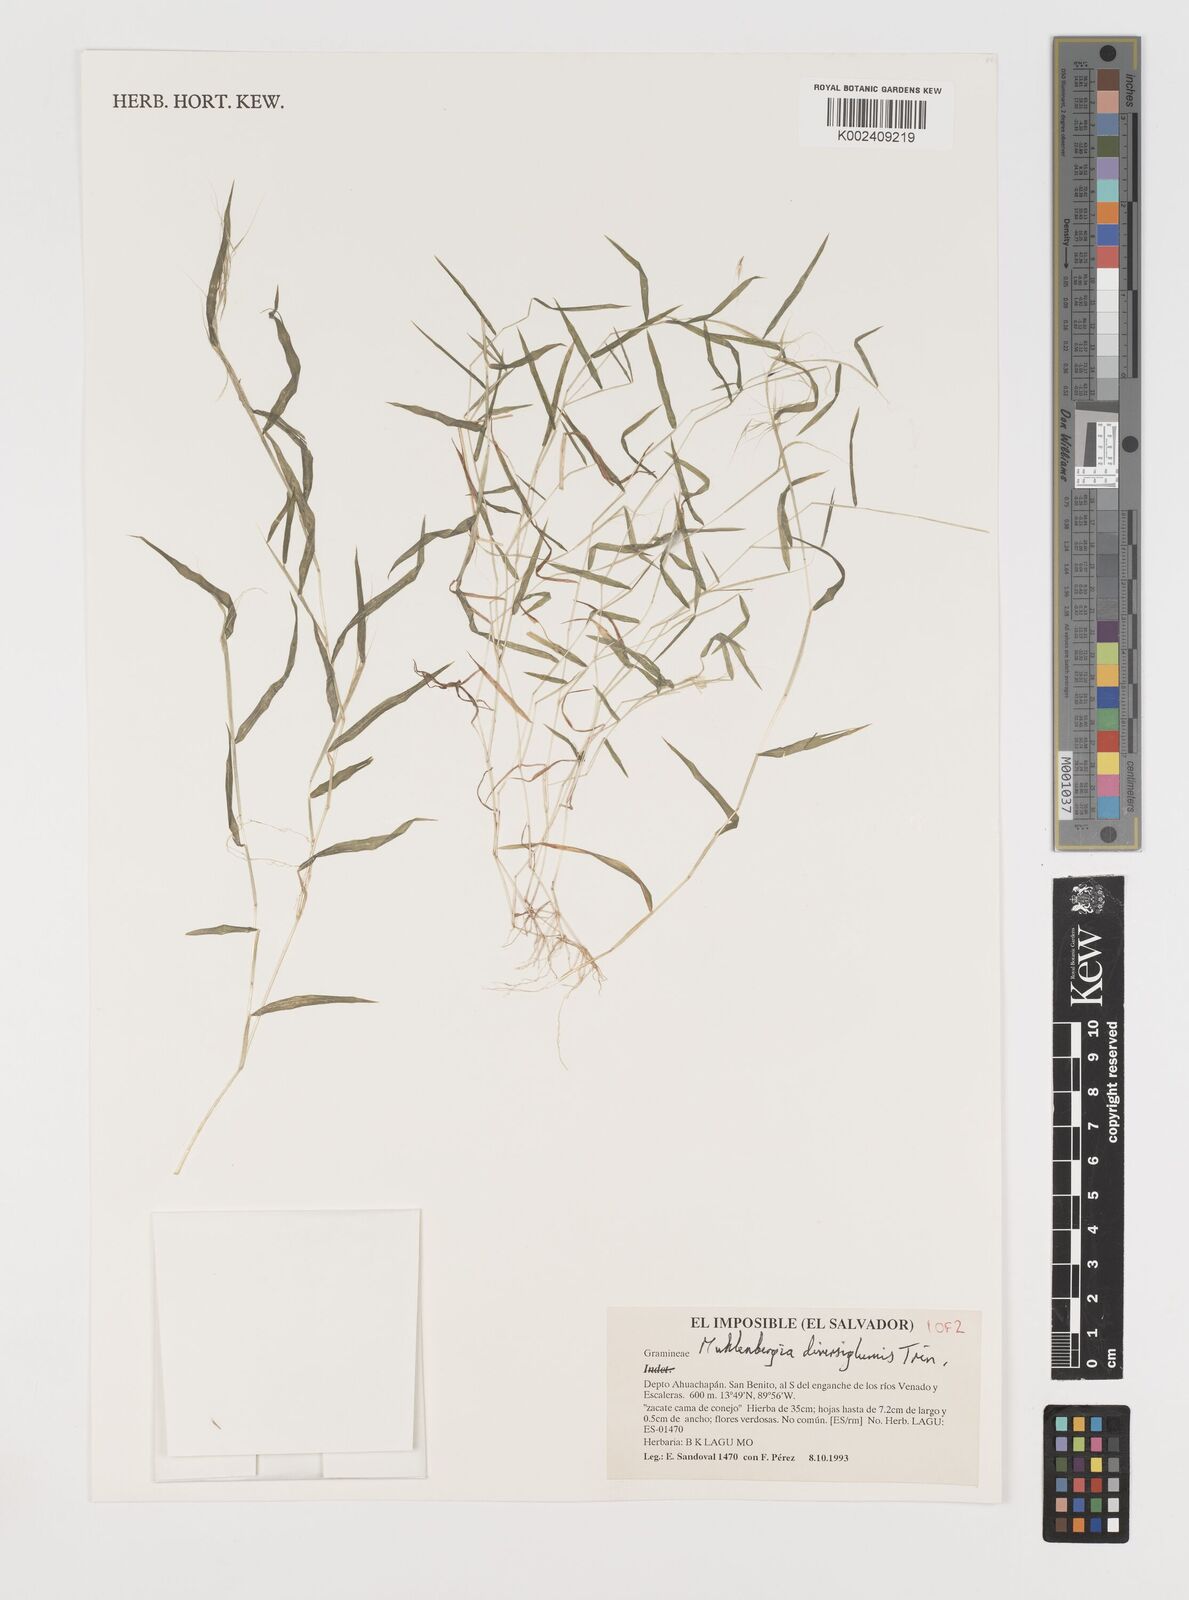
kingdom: Plantae
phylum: Tracheophyta
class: Liliopsida
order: Poales
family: Poaceae
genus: Muhlenbergia
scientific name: Muhlenbergia diversiglumis
